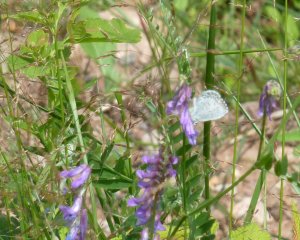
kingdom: Animalia
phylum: Arthropoda
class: Insecta
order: Lepidoptera
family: Lycaenidae
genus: Celastrina
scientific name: Celastrina
